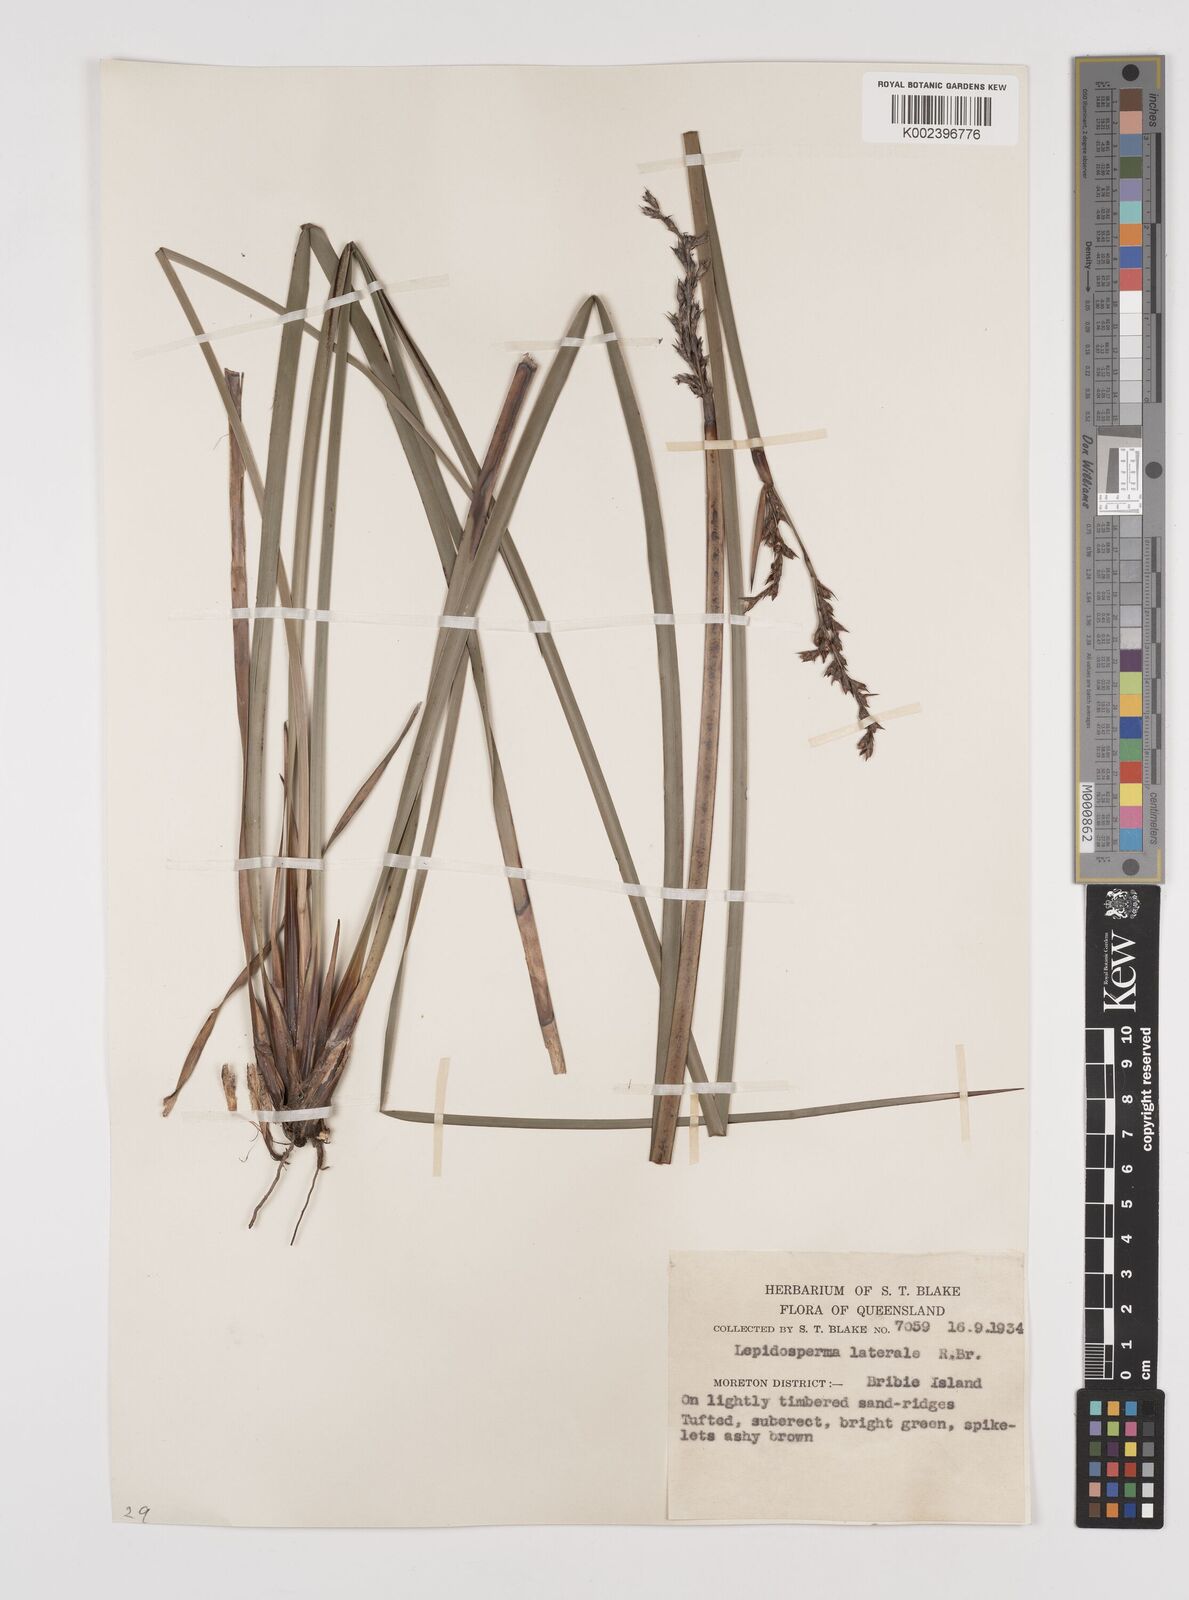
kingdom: Plantae
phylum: Tracheophyta
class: Liliopsida
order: Poales
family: Cyperaceae
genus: Lepidosperma
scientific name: Lepidosperma laterale
